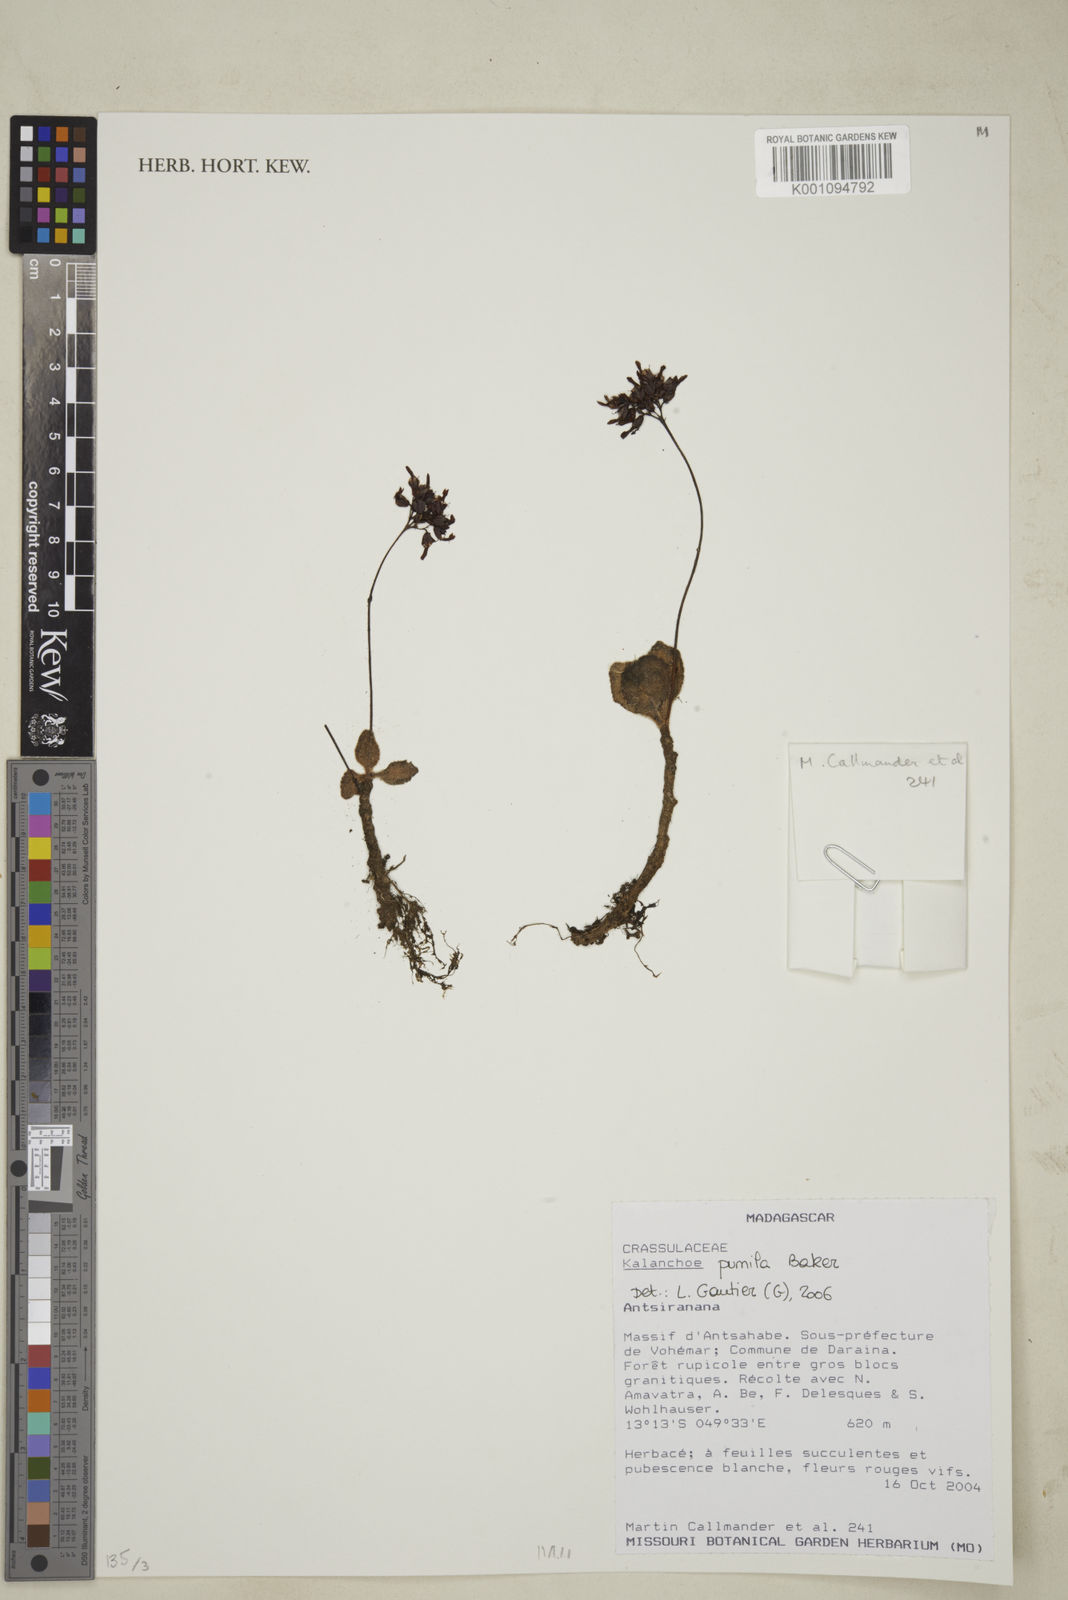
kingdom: Plantae
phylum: Tracheophyta
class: Magnoliopsida
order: Saxifragales
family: Crassulaceae
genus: Kalanchoe
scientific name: Kalanchoe pumila
